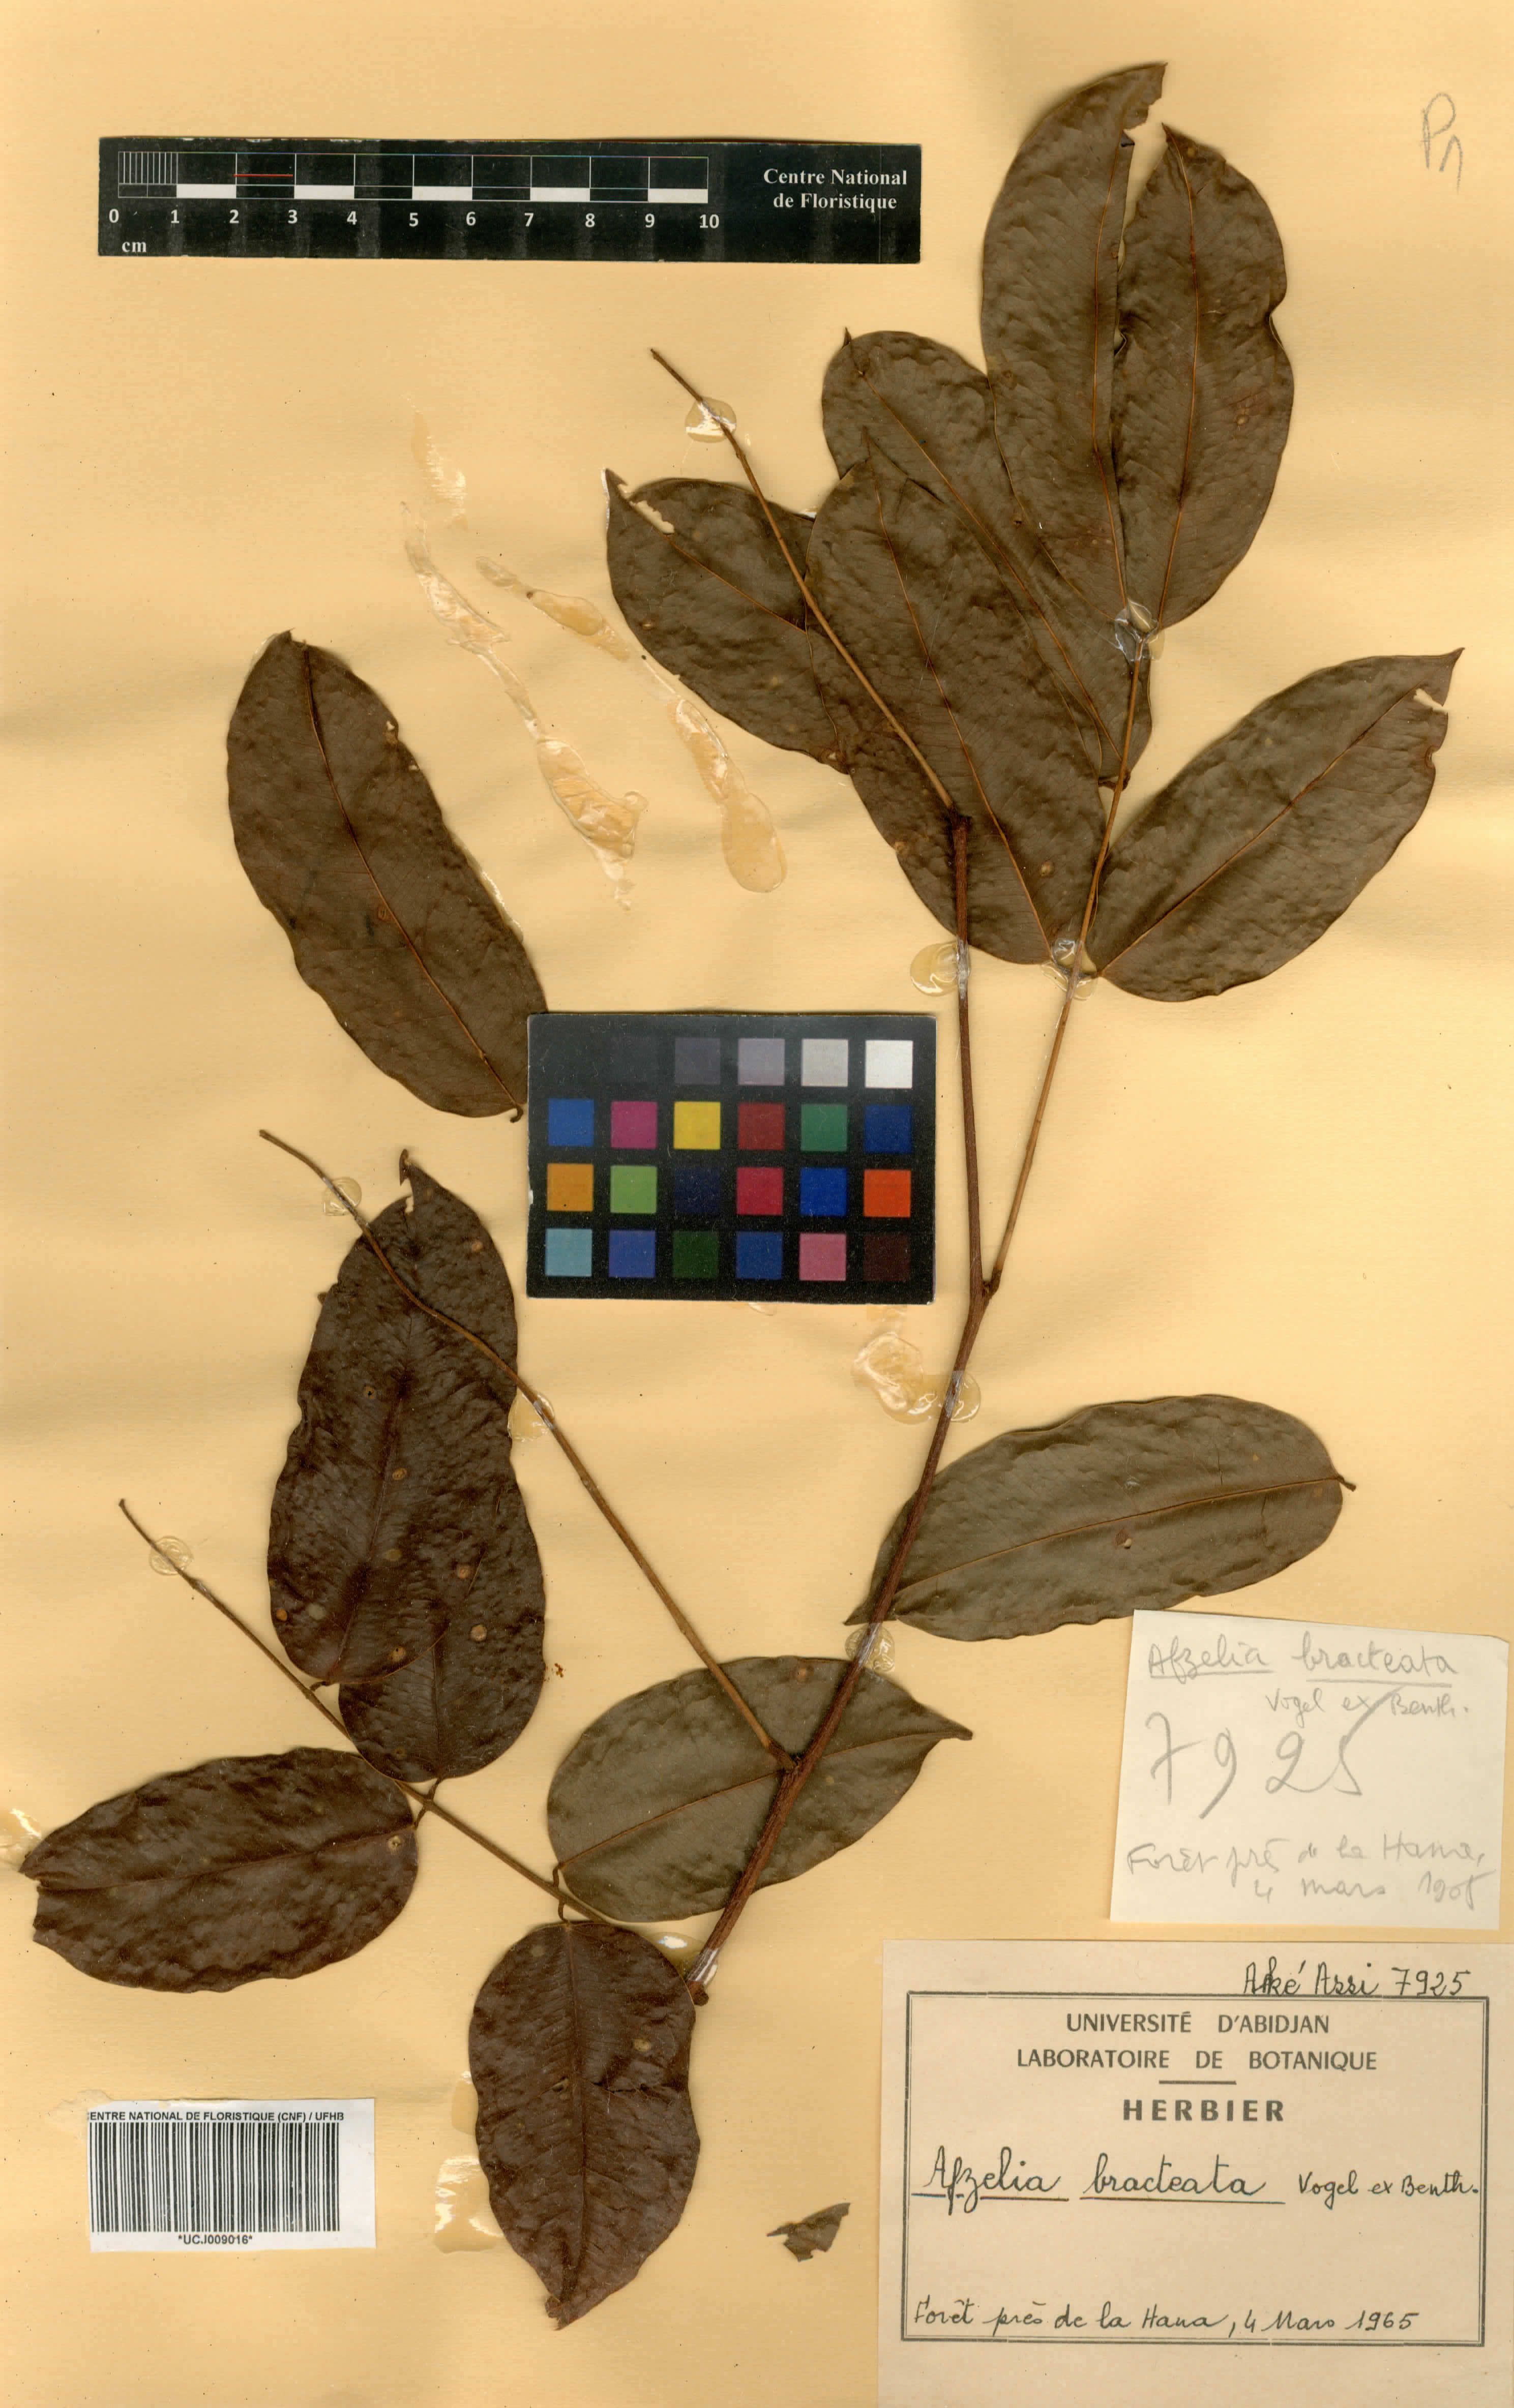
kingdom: Plantae
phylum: Tracheophyta
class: Magnoliopsida
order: Fabales
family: Fabaceae
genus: Afzelia
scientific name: Afzelia parviflora
